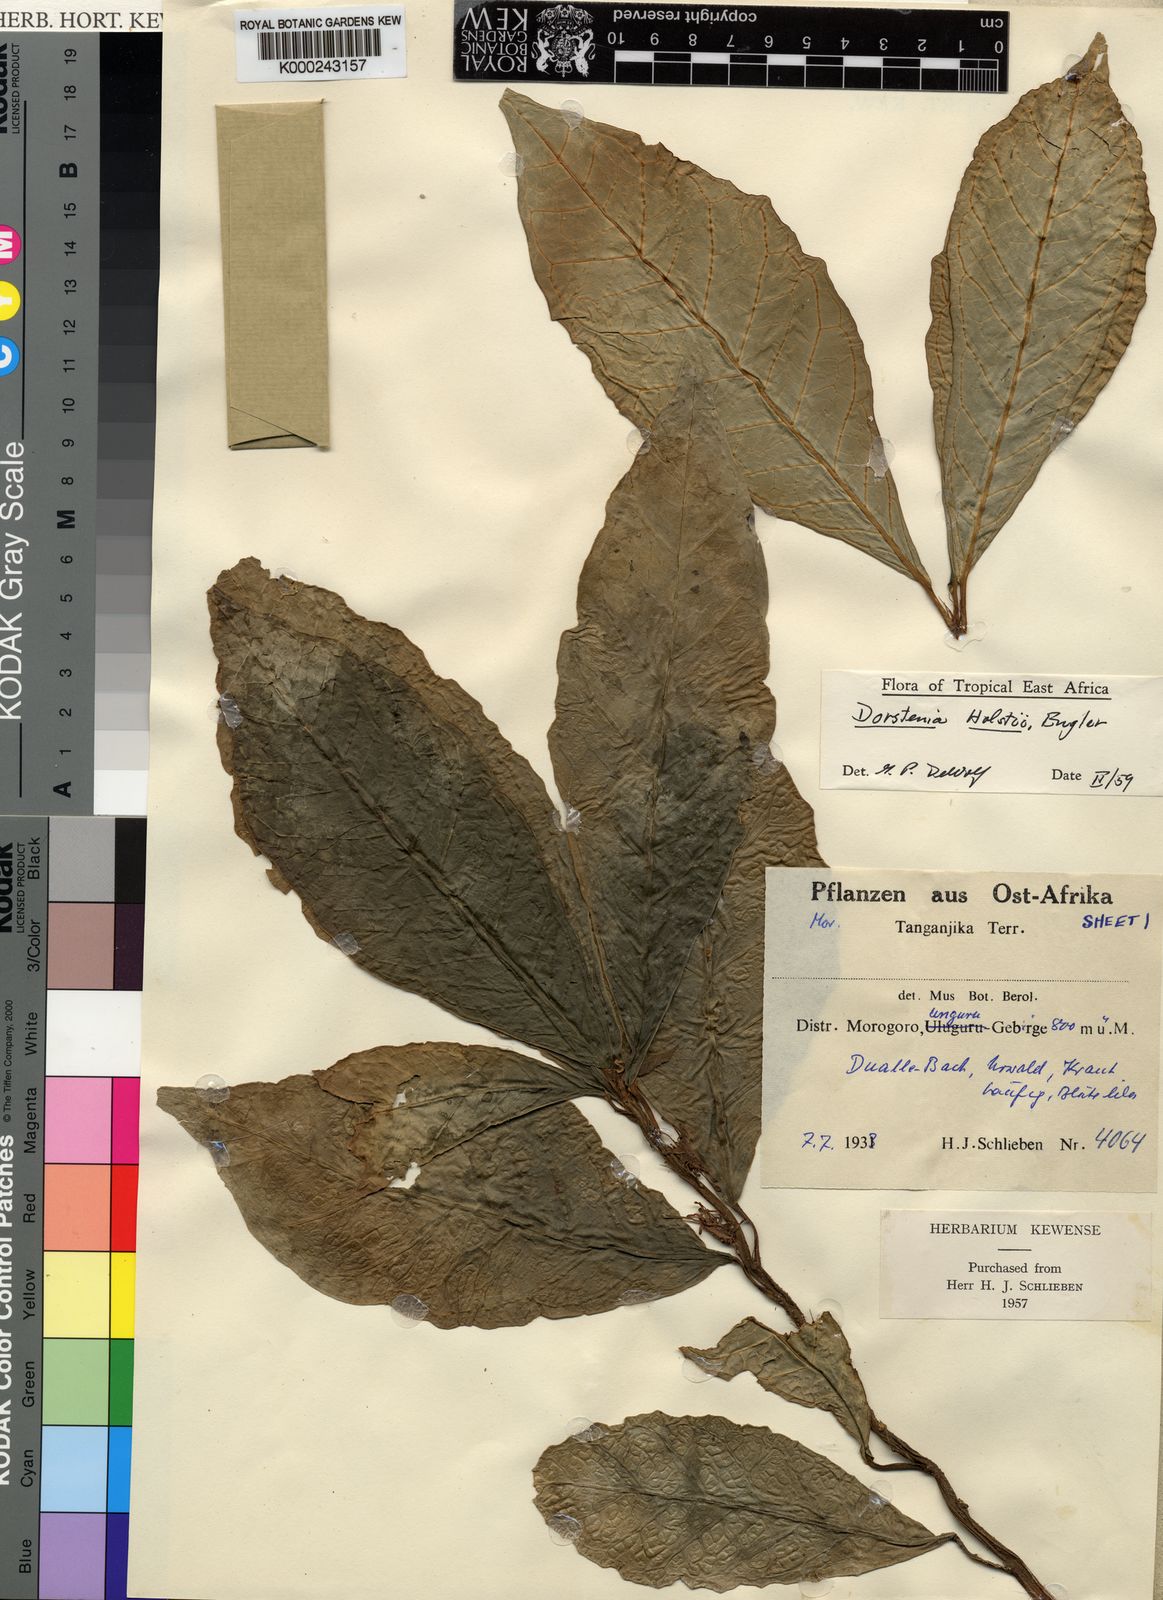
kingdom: Plantae
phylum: Tracheophyta
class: Magnoliopsida
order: Rosales
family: Moraceae
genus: Dorstenia
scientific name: Dorstenia holstii
